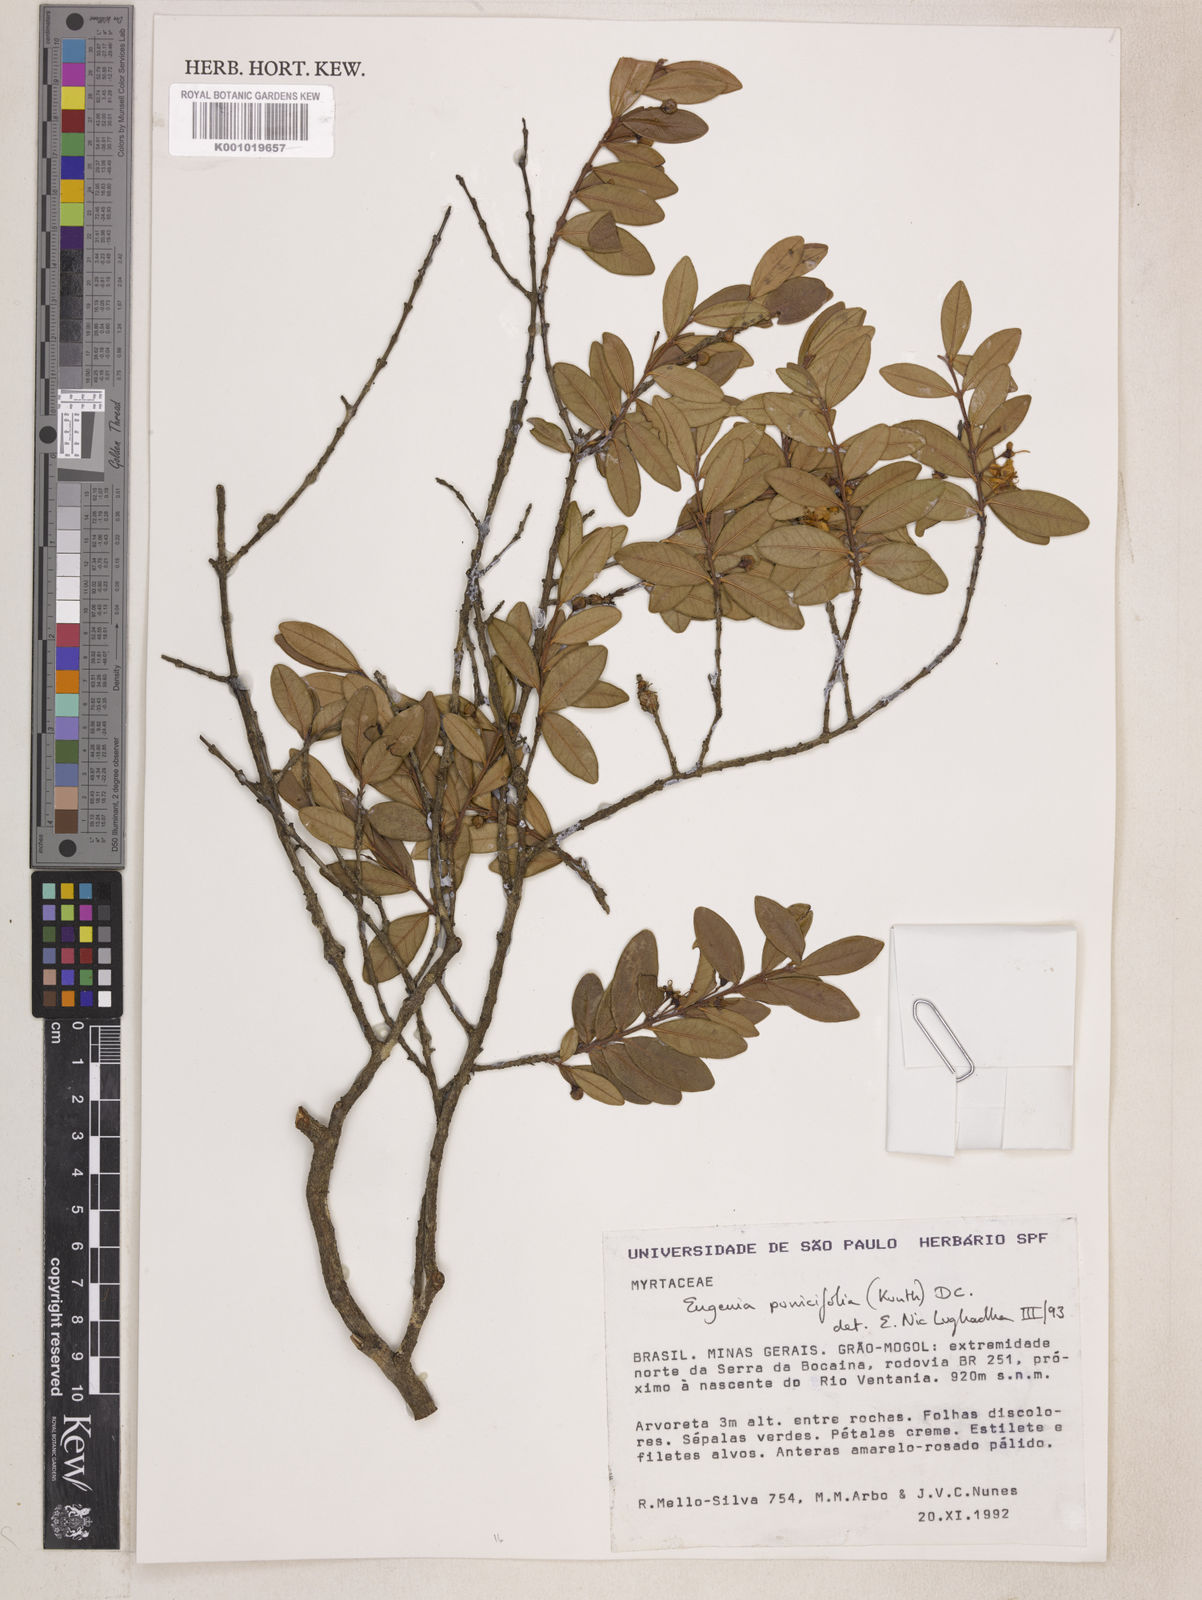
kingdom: Plantae
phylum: Tracheophyta
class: Magnoliopsida
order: Myrtales
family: Myrtaceae
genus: Eugenia
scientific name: Eugenia punicifolia
